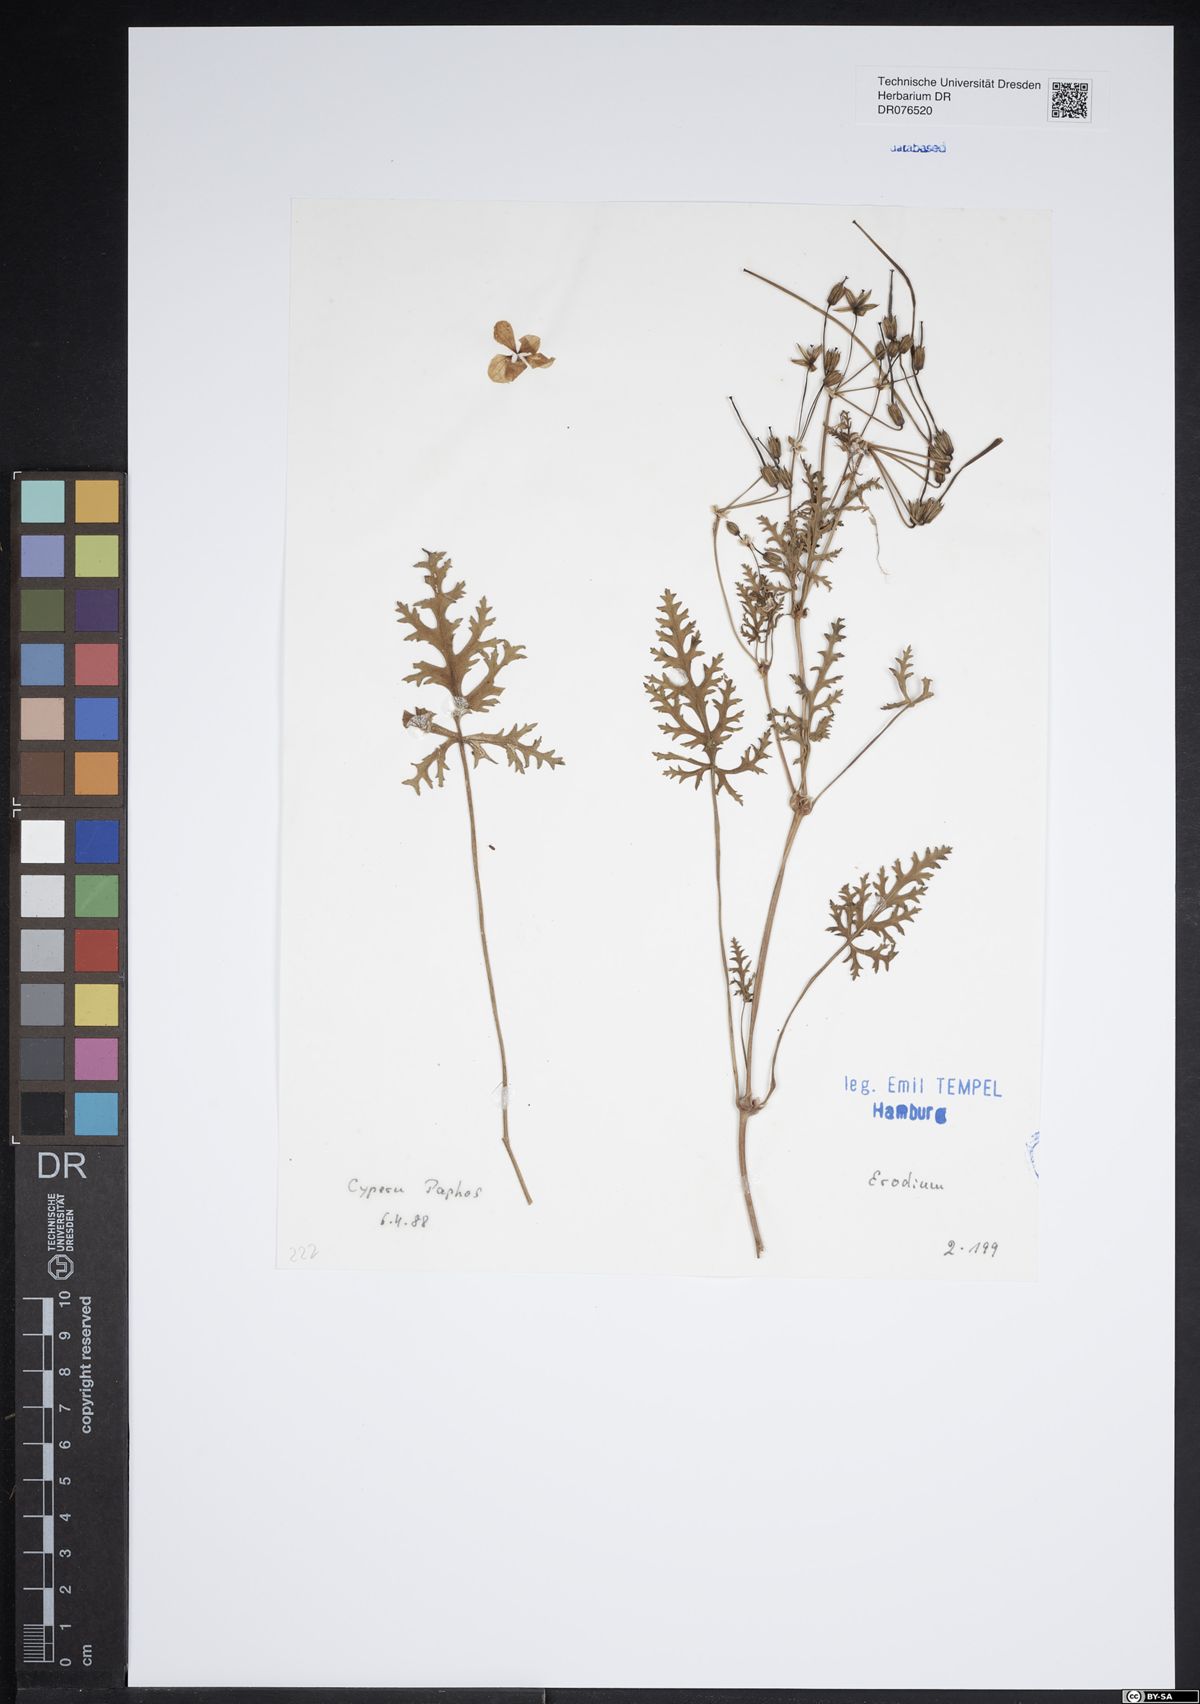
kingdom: Plantae
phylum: Tracheophyta
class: Magnoliopsida
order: Geraniales
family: Geraniaceae
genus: Erodium
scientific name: Erodium
